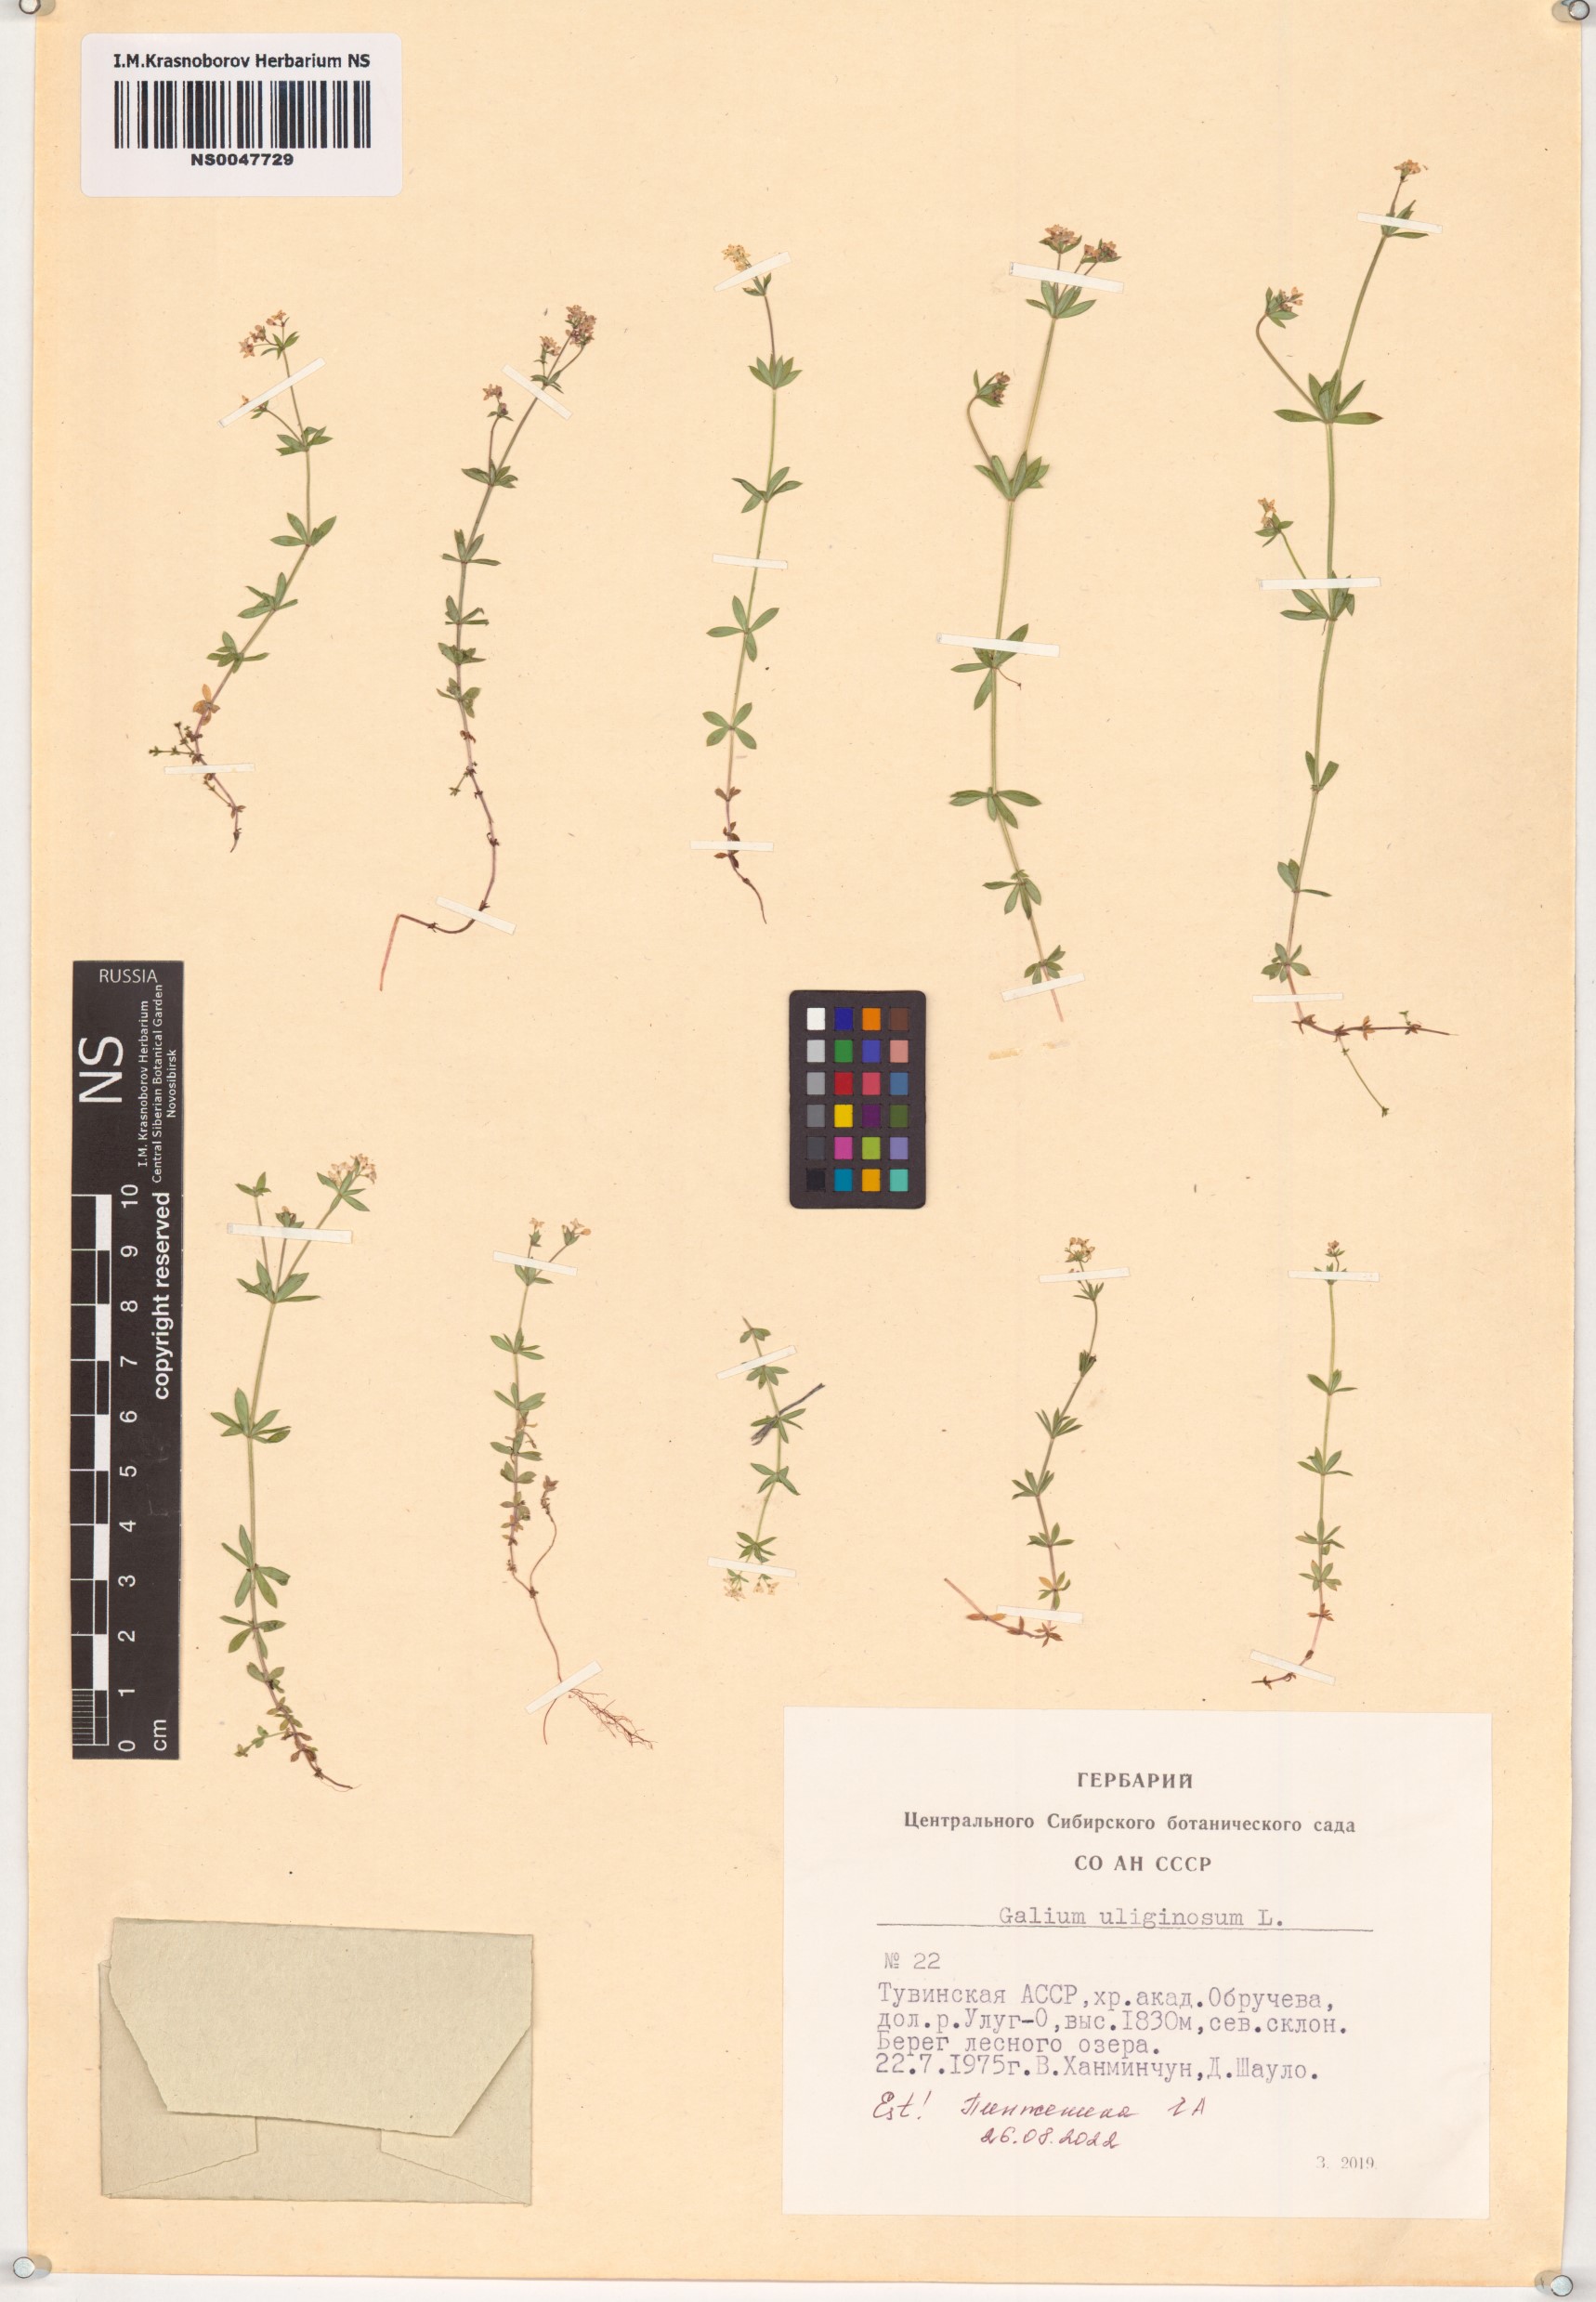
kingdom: Plantae
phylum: Tracheophyta
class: Magnoliopsida
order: Gentianales
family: Rubiaceae
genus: Galium
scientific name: Galium uliginosum
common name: Fen bedstraw
